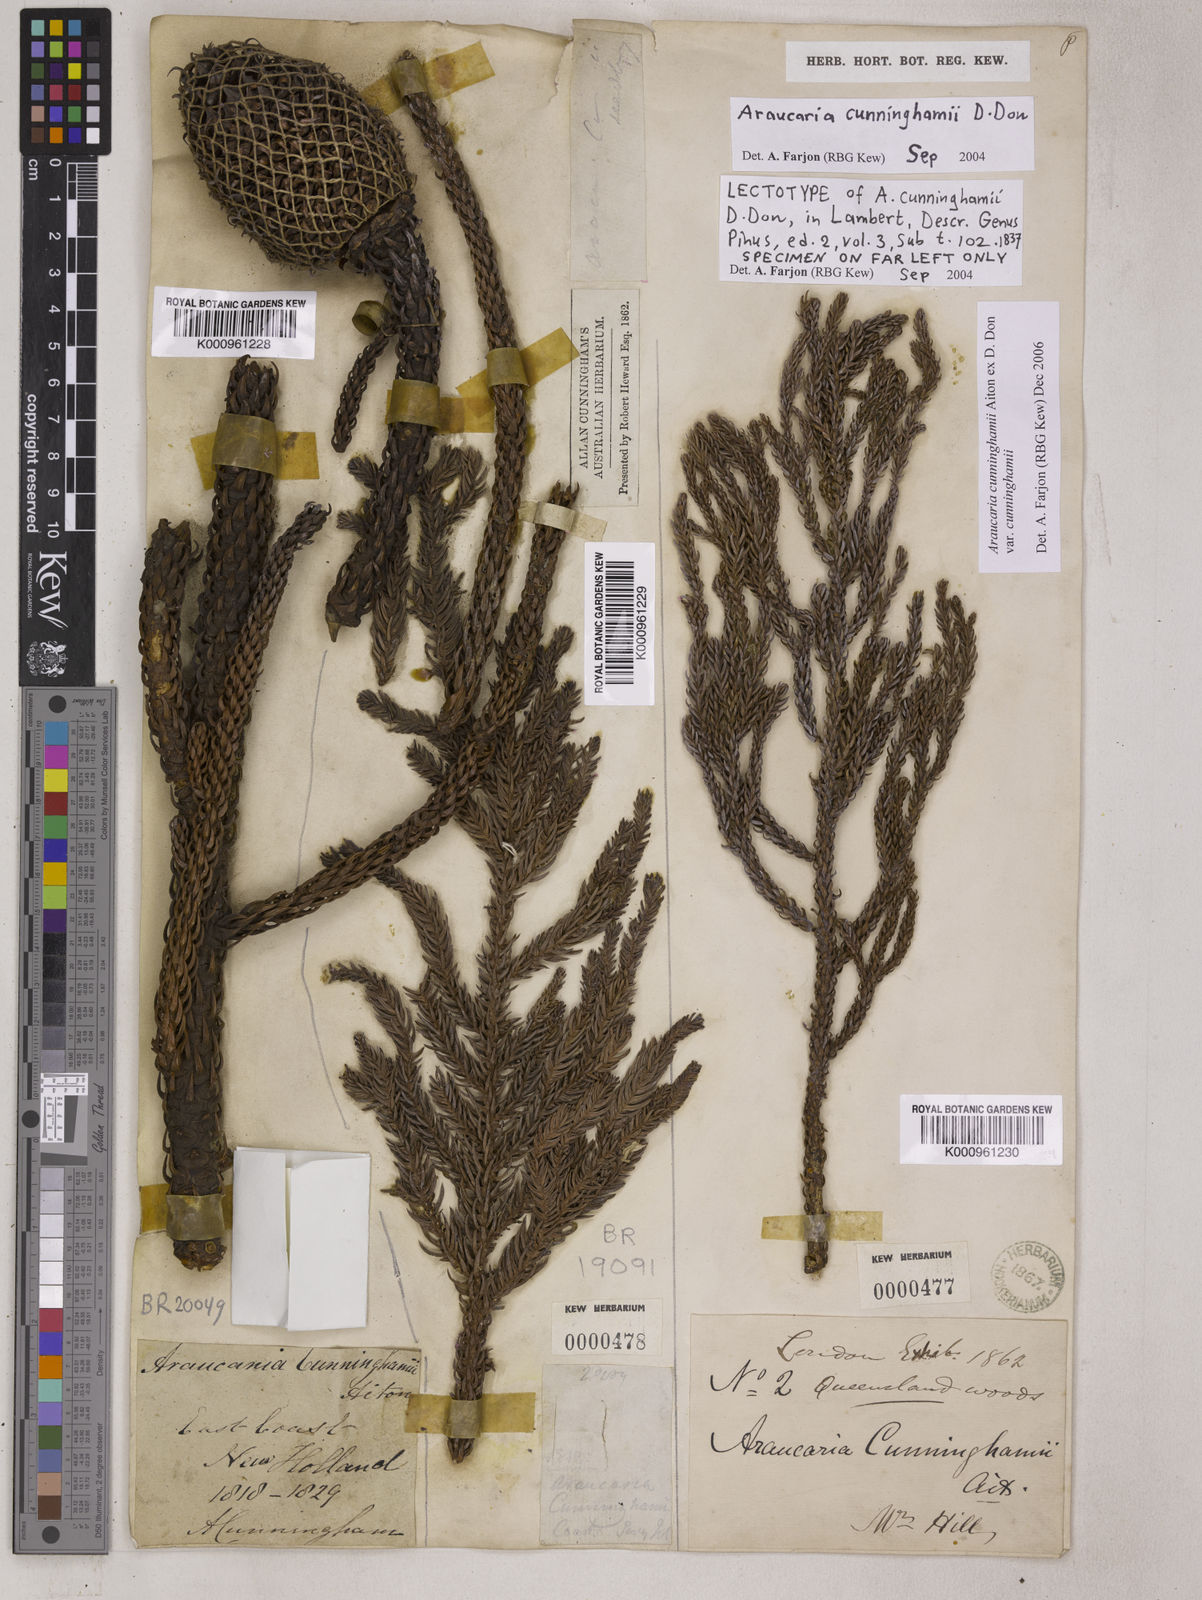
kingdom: Plantae
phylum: Tracheophyta
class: Pinopsida
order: Pinales
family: Araucariaceae
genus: Araucaria
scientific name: Araucaria cunninghamii
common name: Colonial pine
